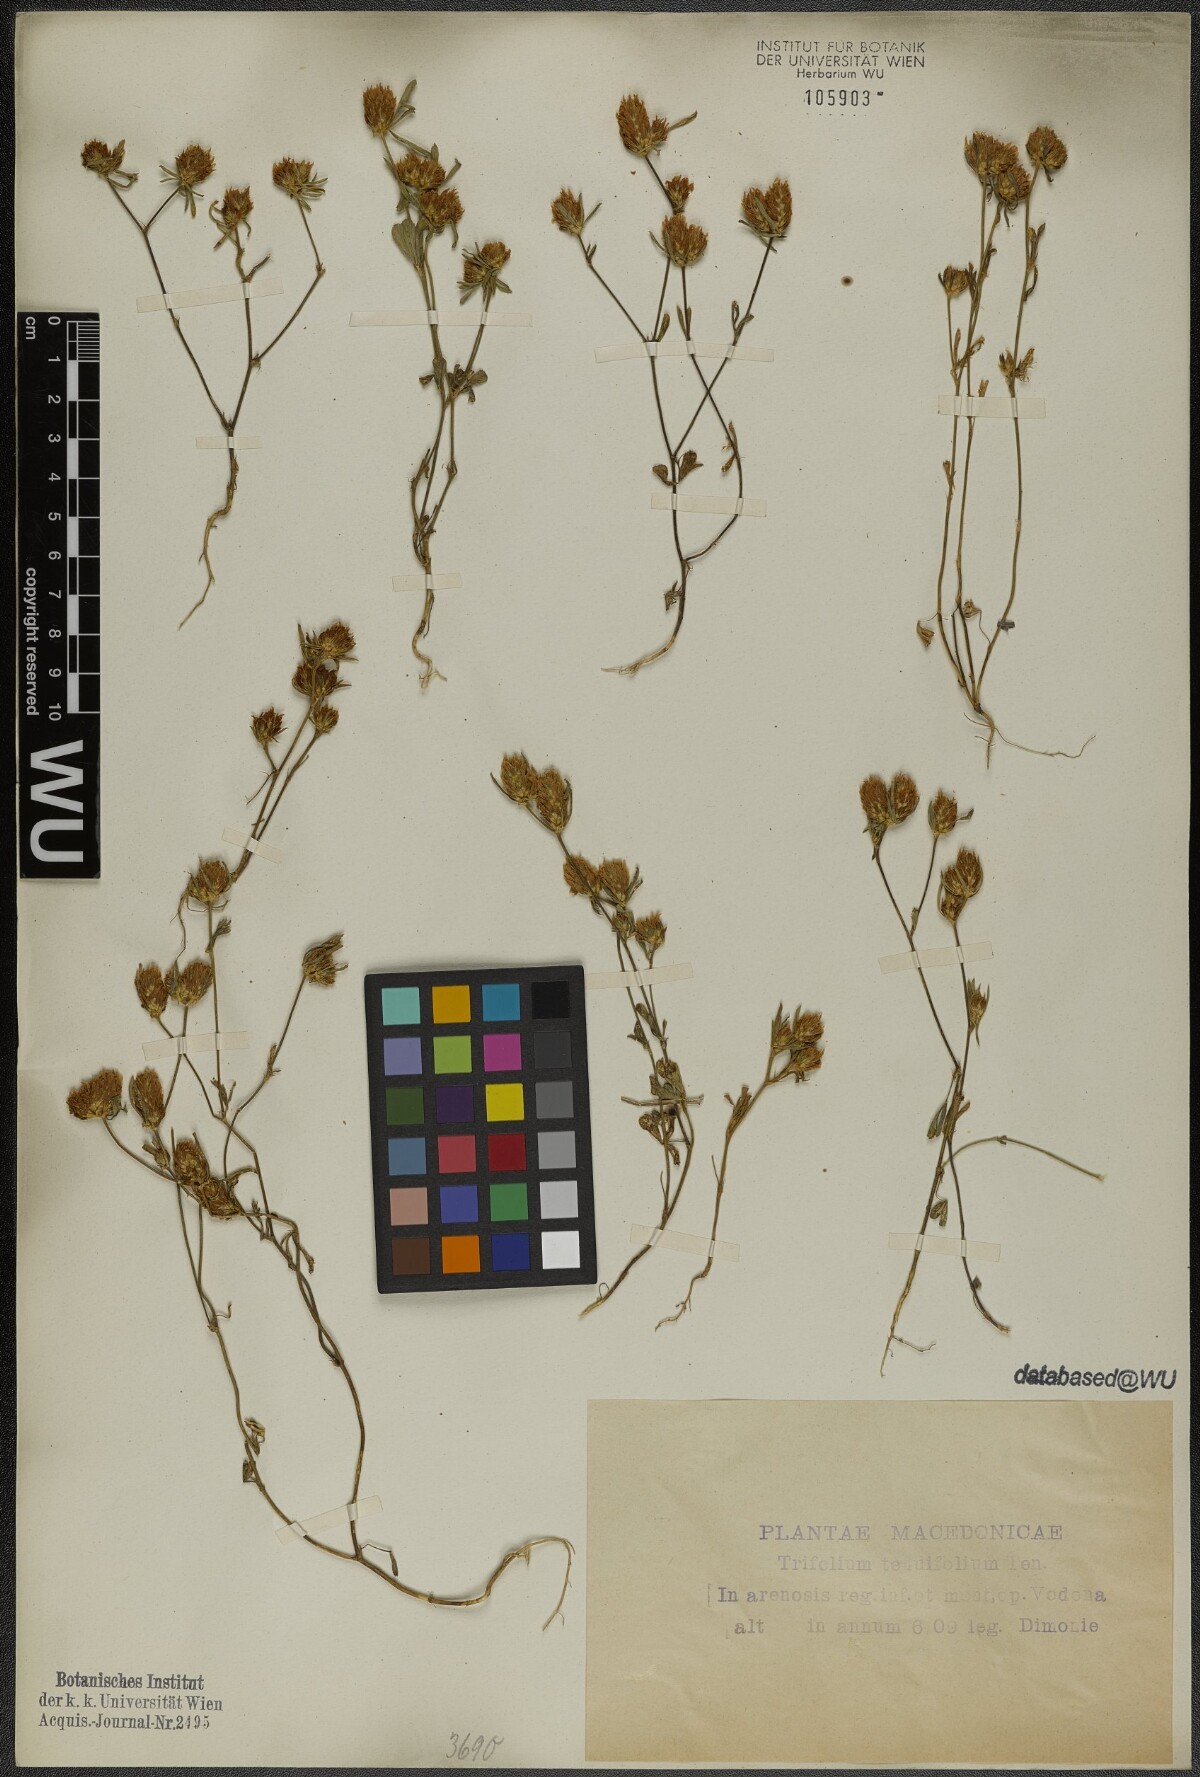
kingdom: Plantae
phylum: Tracheophyta
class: Magnoliopsida
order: Fabales
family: Fabaceae
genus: Trifolium
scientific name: Trifolium tenuifolium
